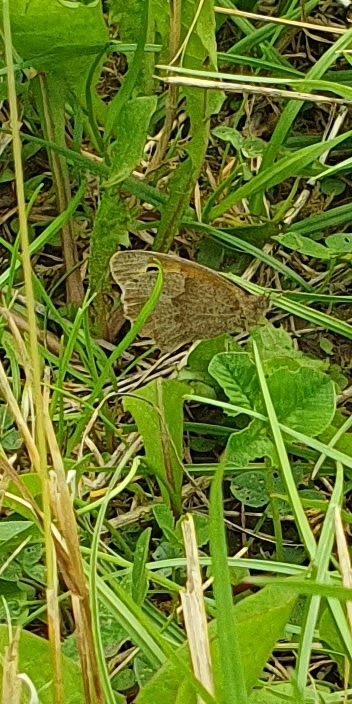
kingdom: Animalia
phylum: Arthropoda
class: Insecta
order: Lepidoptera
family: Nymphalidae
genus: Maniola
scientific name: Maniola jurtina
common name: Græsrandøje
